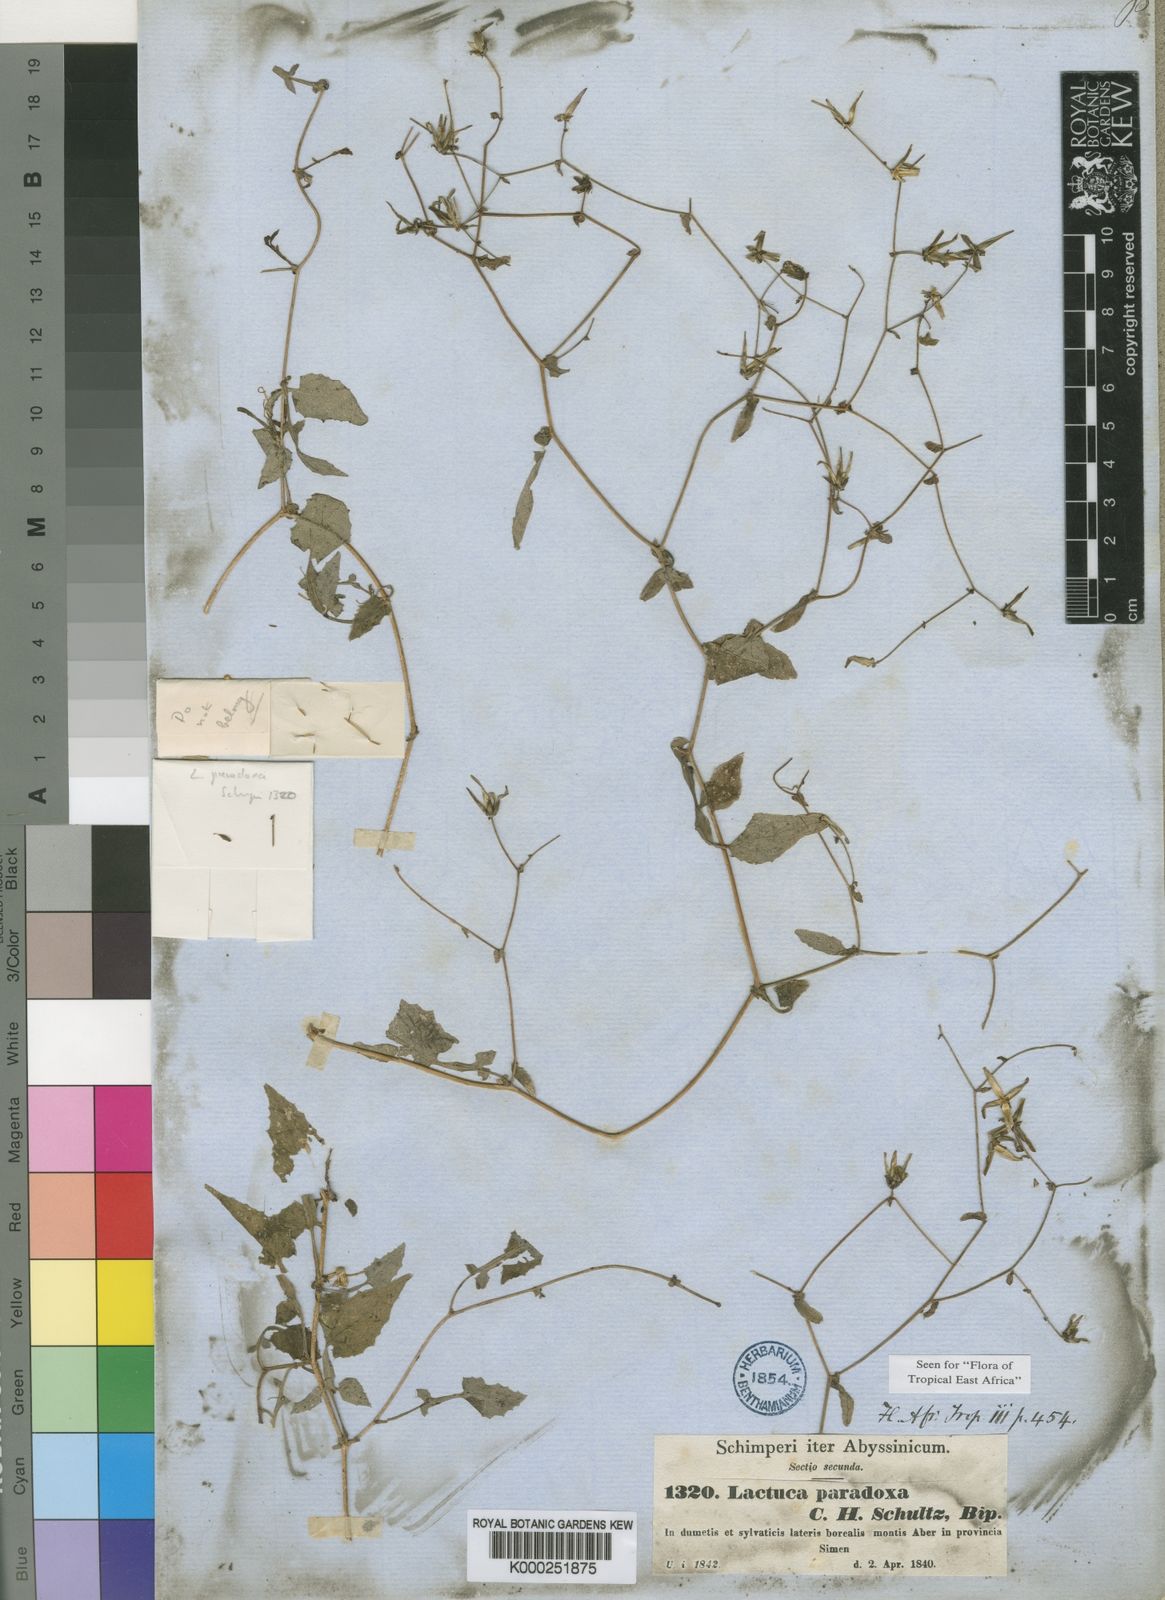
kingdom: Plantae
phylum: Tracheophyta
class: Magnoliopsida
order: Asterales
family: Asteraceae
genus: Lactuca
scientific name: Lactuca paradoxa
